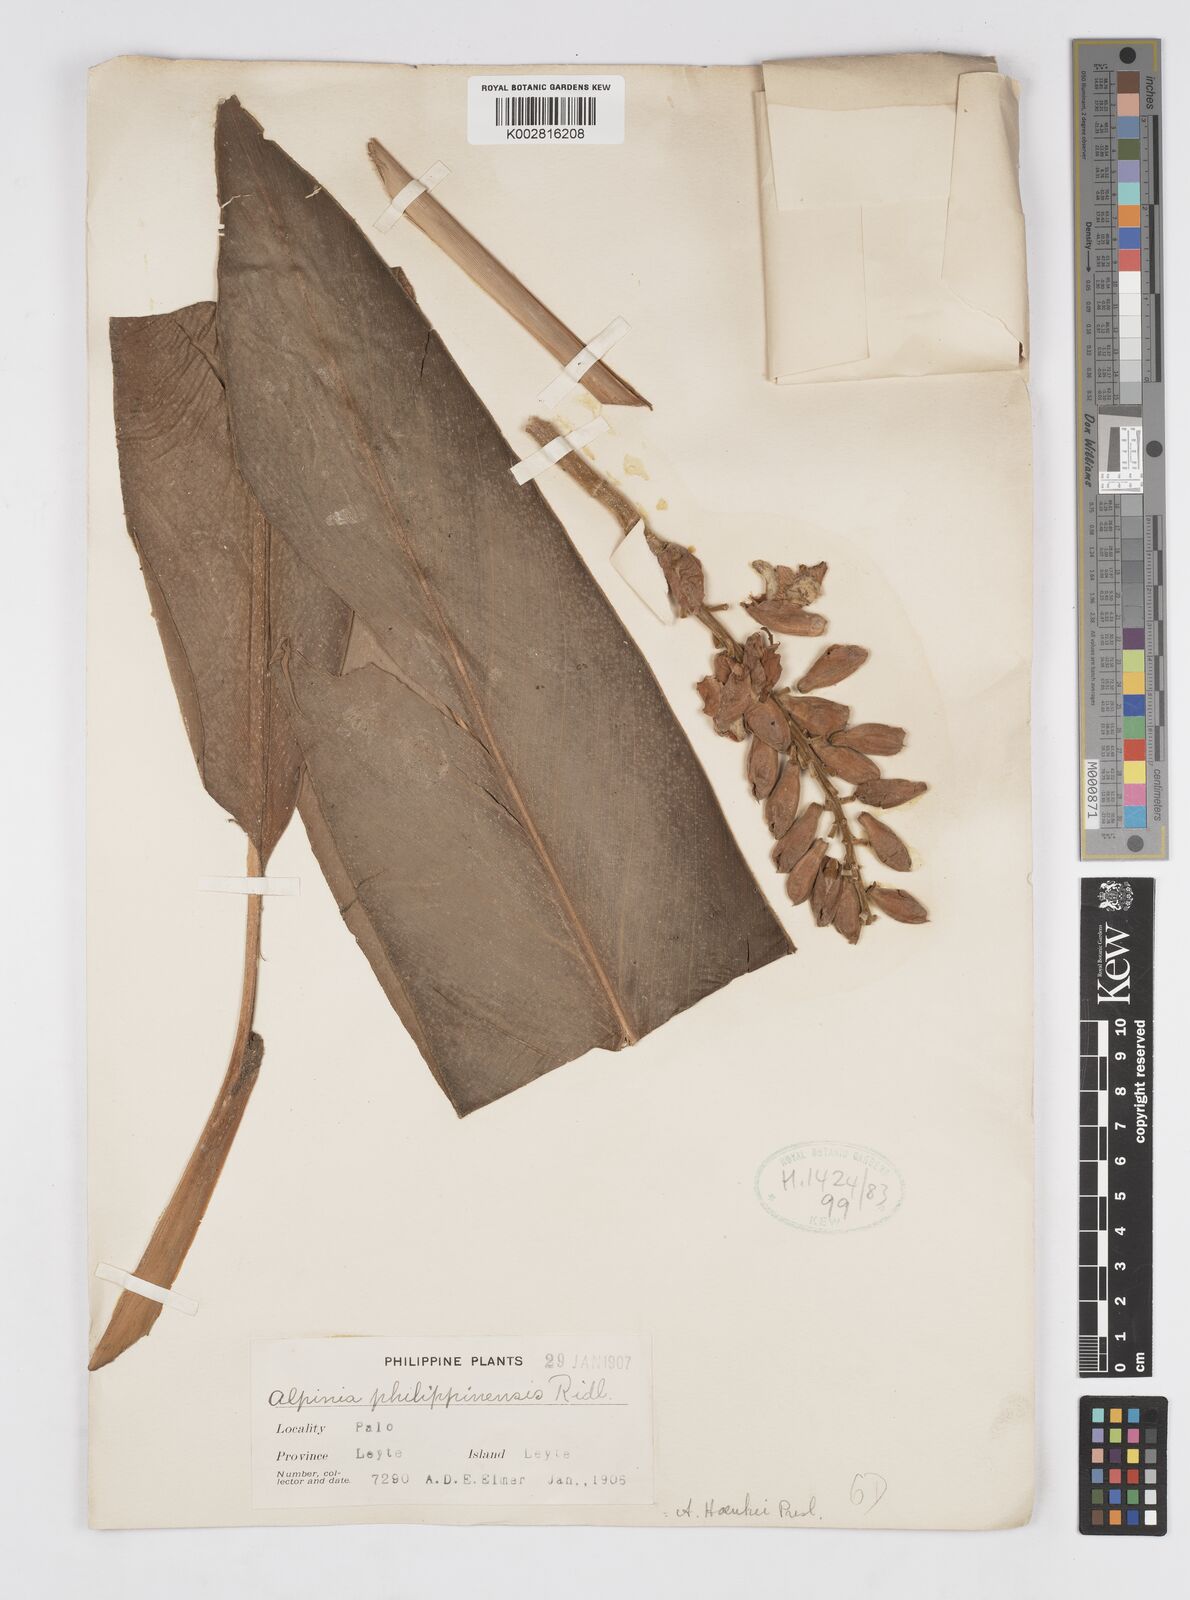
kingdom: Plantae
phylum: Tracheophyta
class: Liliopsida
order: Zingiberales
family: Zingiberaceae
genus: Alpinia
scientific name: Alpinia haenkei
